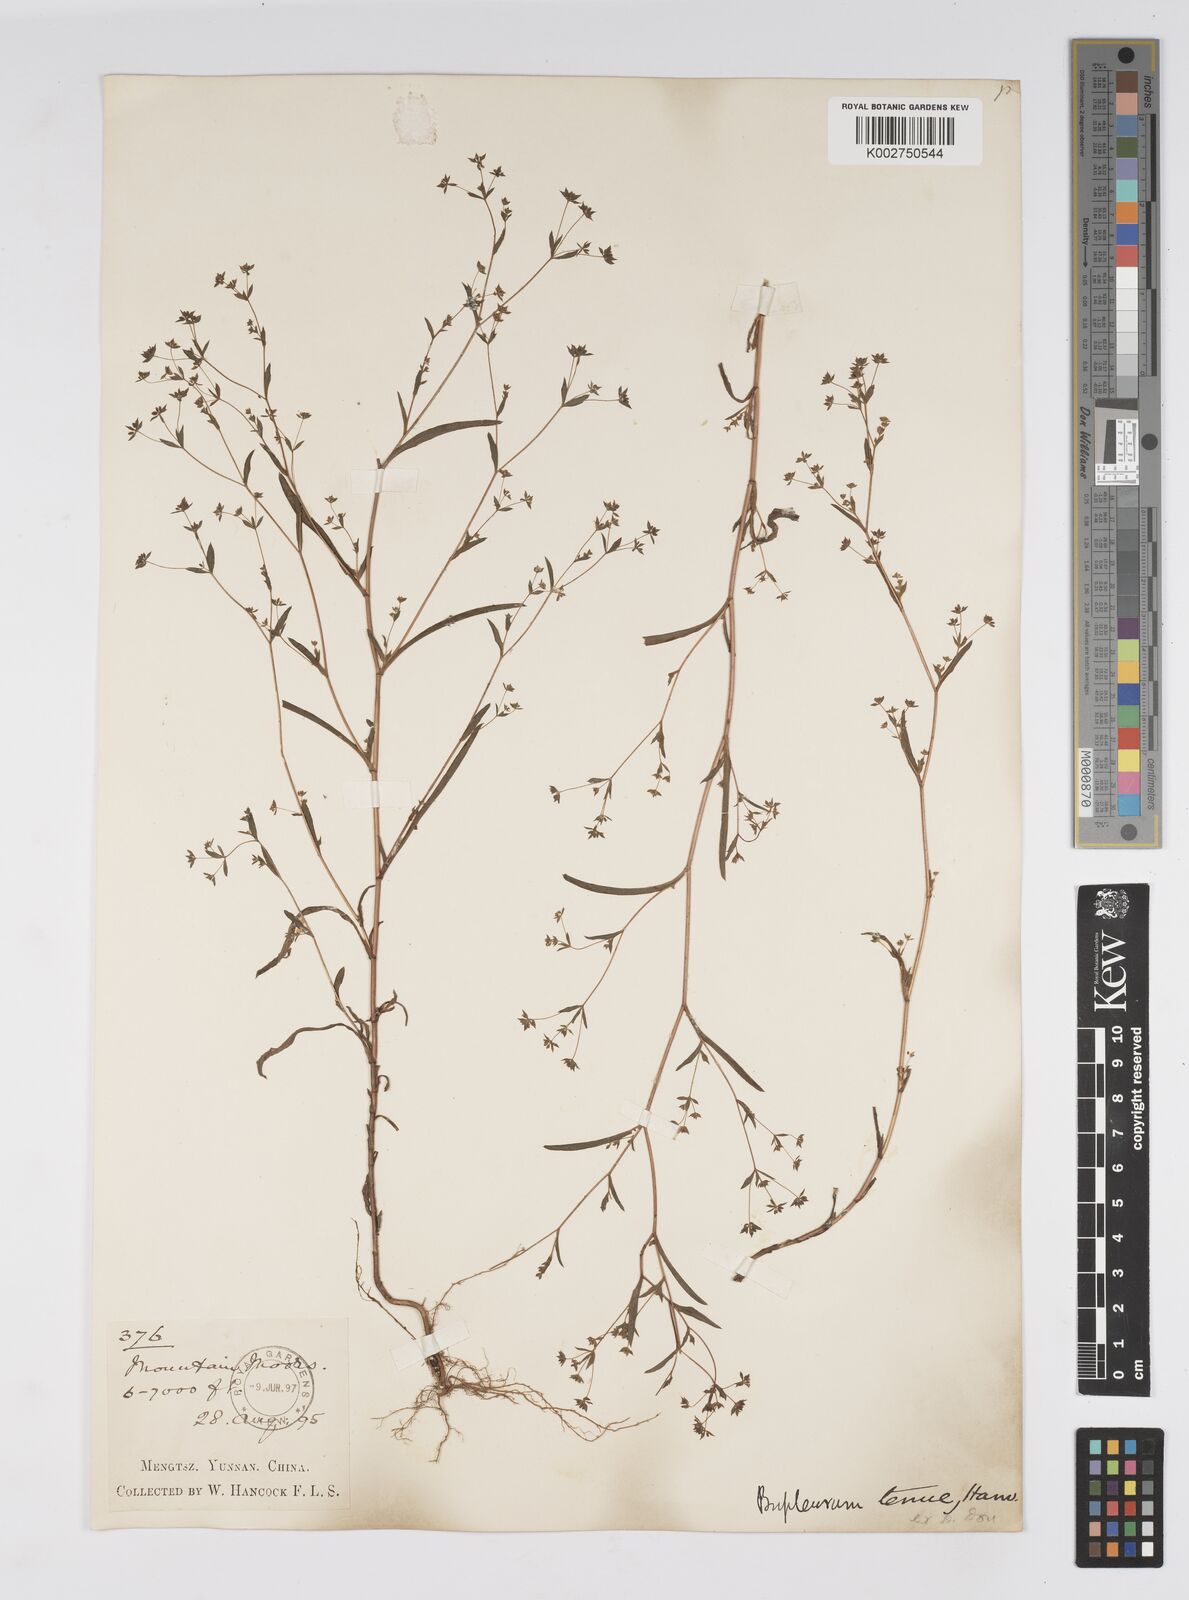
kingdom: Plantae
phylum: Tracheophyta
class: Magnoliopsida
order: Apiales
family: Apiaceae
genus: Bupleurum
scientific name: Bupleurum hamiltonii
